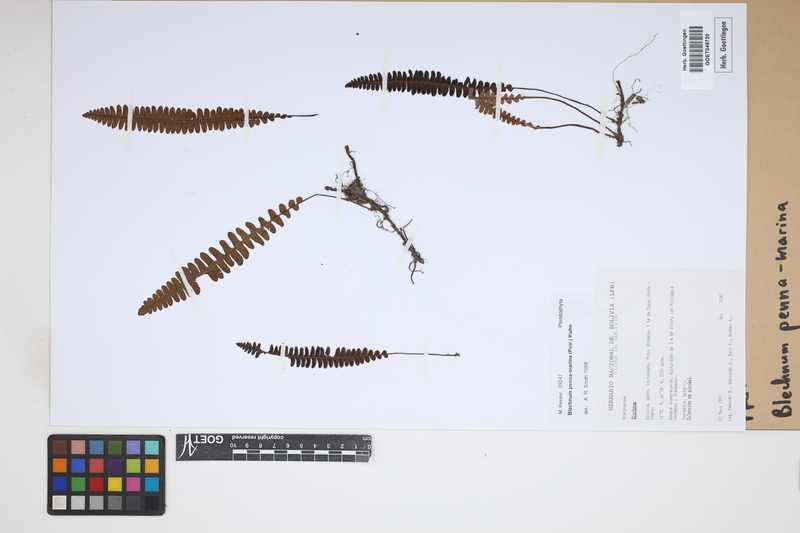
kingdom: Plantae
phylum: Tracheophyta
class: Polypodiopsida
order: Polypodiales
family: Blechnaceae
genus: Austroblechnum
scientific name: Austroblechnum penna-marina
